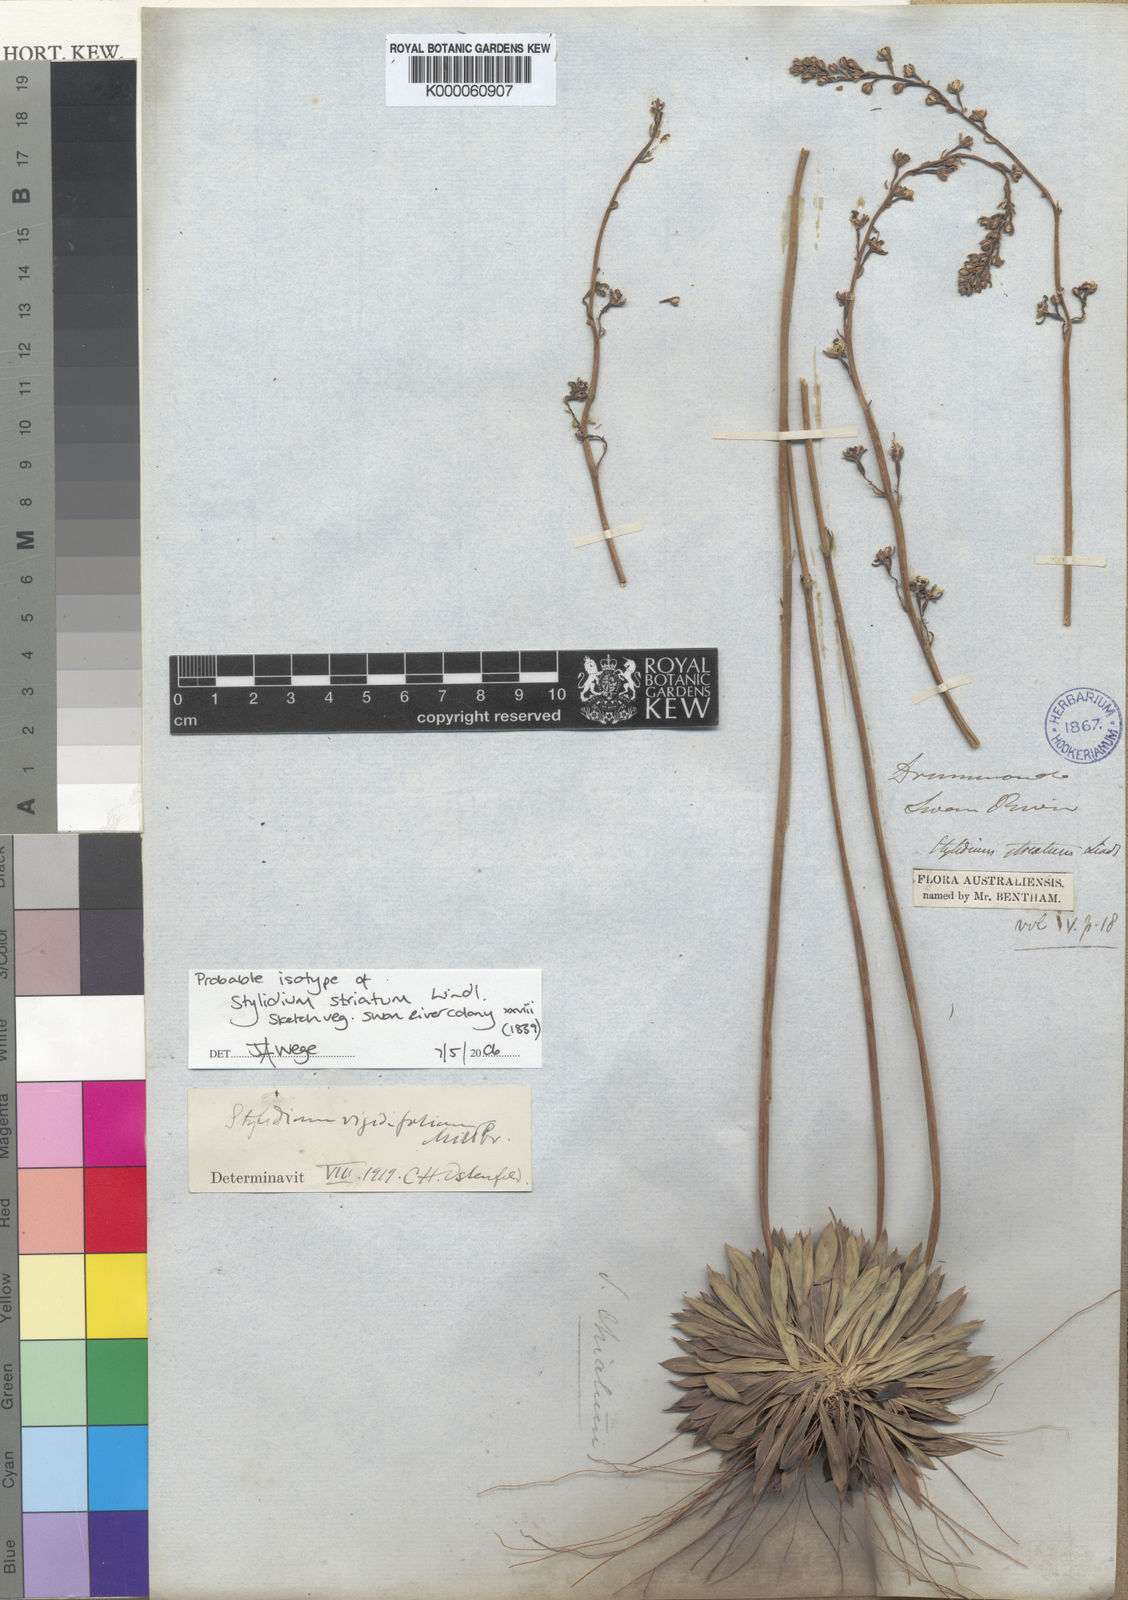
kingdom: Plantae
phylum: Tracheophyta
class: Magnoliopsida
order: Asterales
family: Stylidiaceae
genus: Stylidium
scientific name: Stylidium striatum
